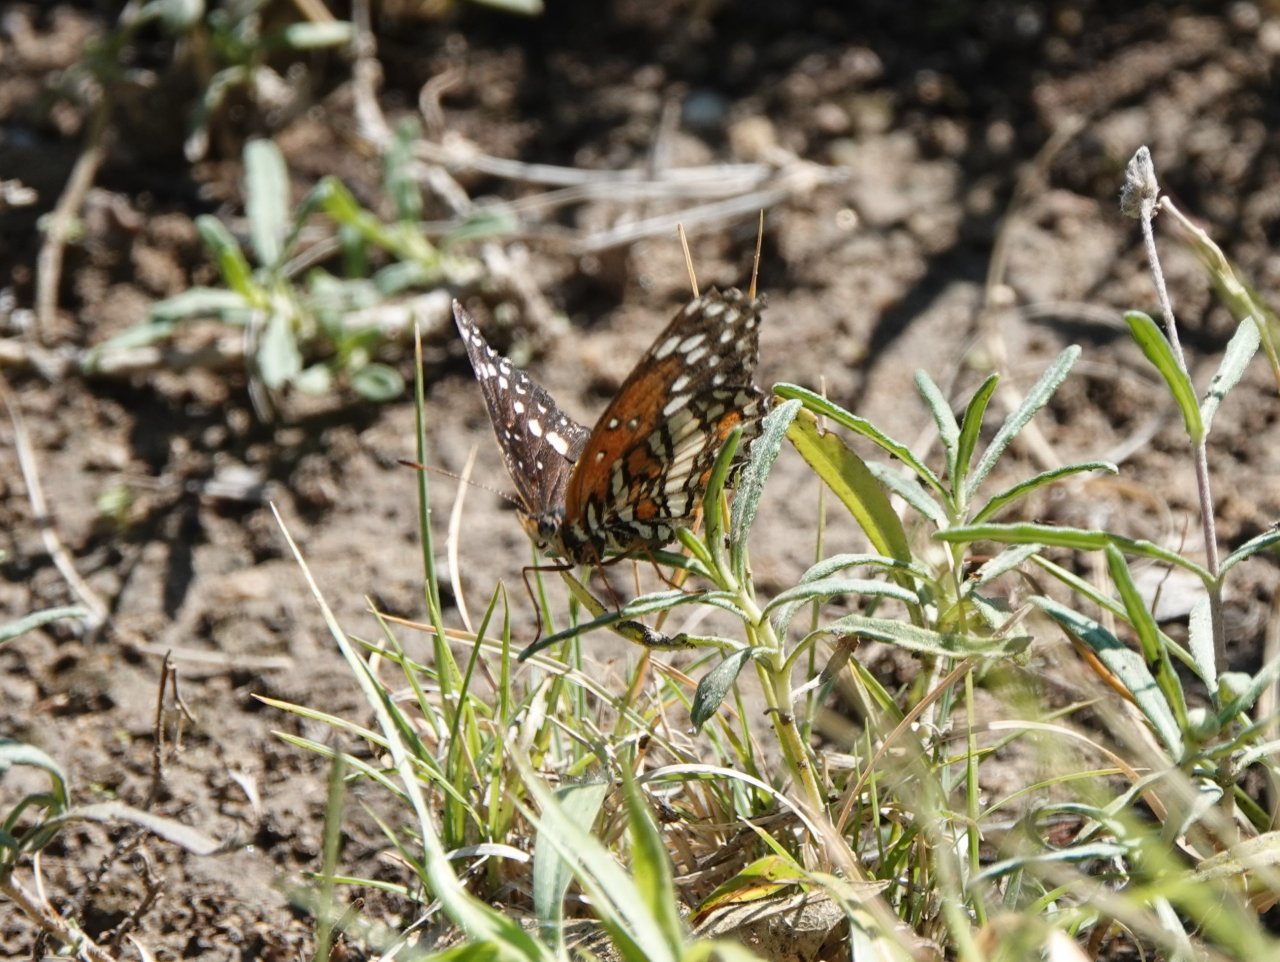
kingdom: Animalia
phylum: Arthropoda
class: Insecta
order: Lepidoptera
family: Nymphalidae
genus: Chlosyne
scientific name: Chlosyne endeis
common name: Banded Patch
